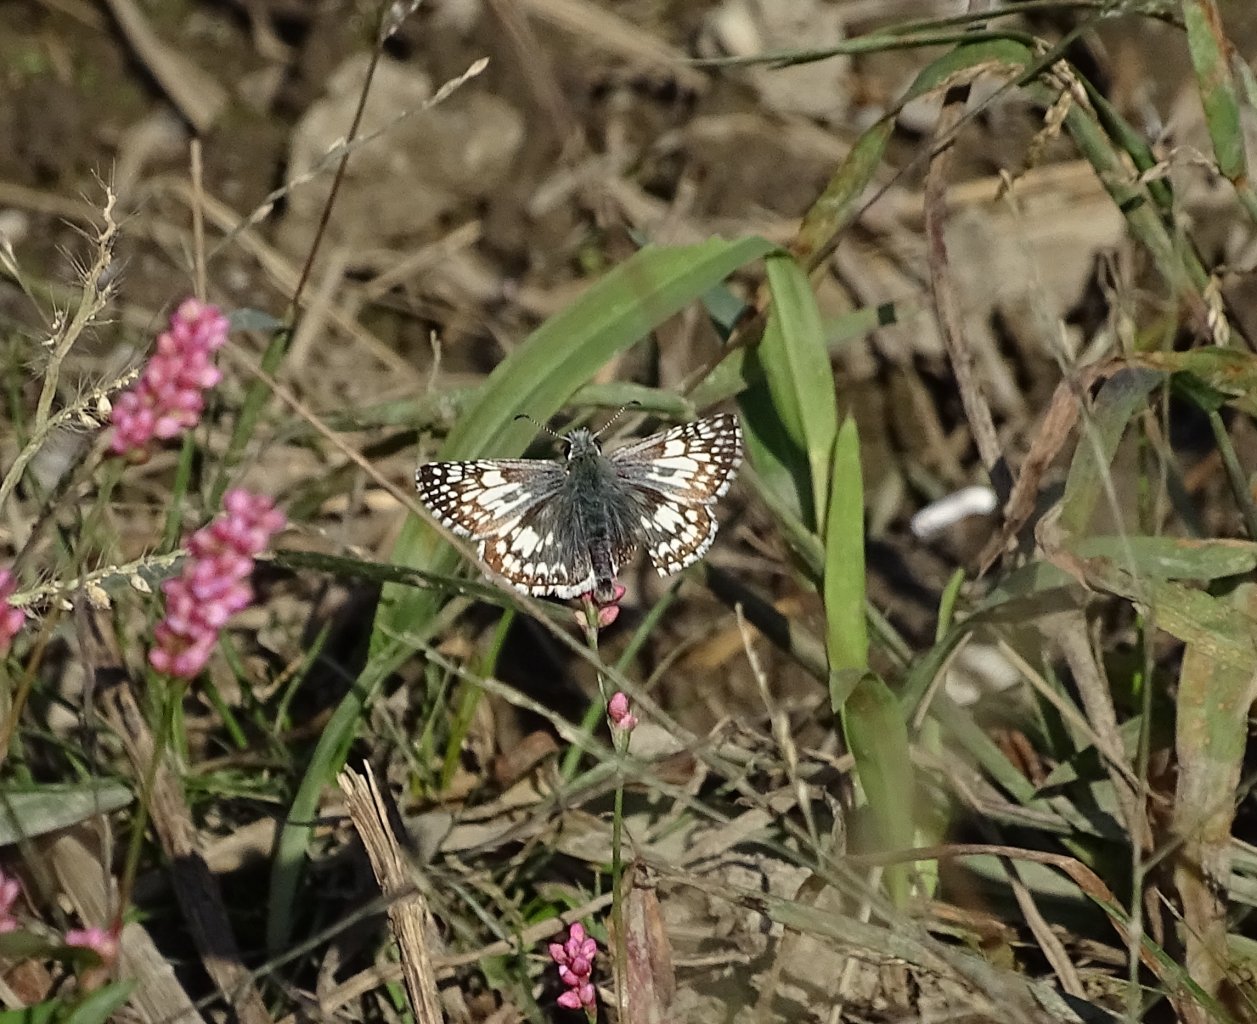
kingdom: Animalia
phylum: Arthropoda
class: Insecta
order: Lepidoptera
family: Hesperiidae
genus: Pyrgus
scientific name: Pyrgus communis
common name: Common Checkered-Skipper
